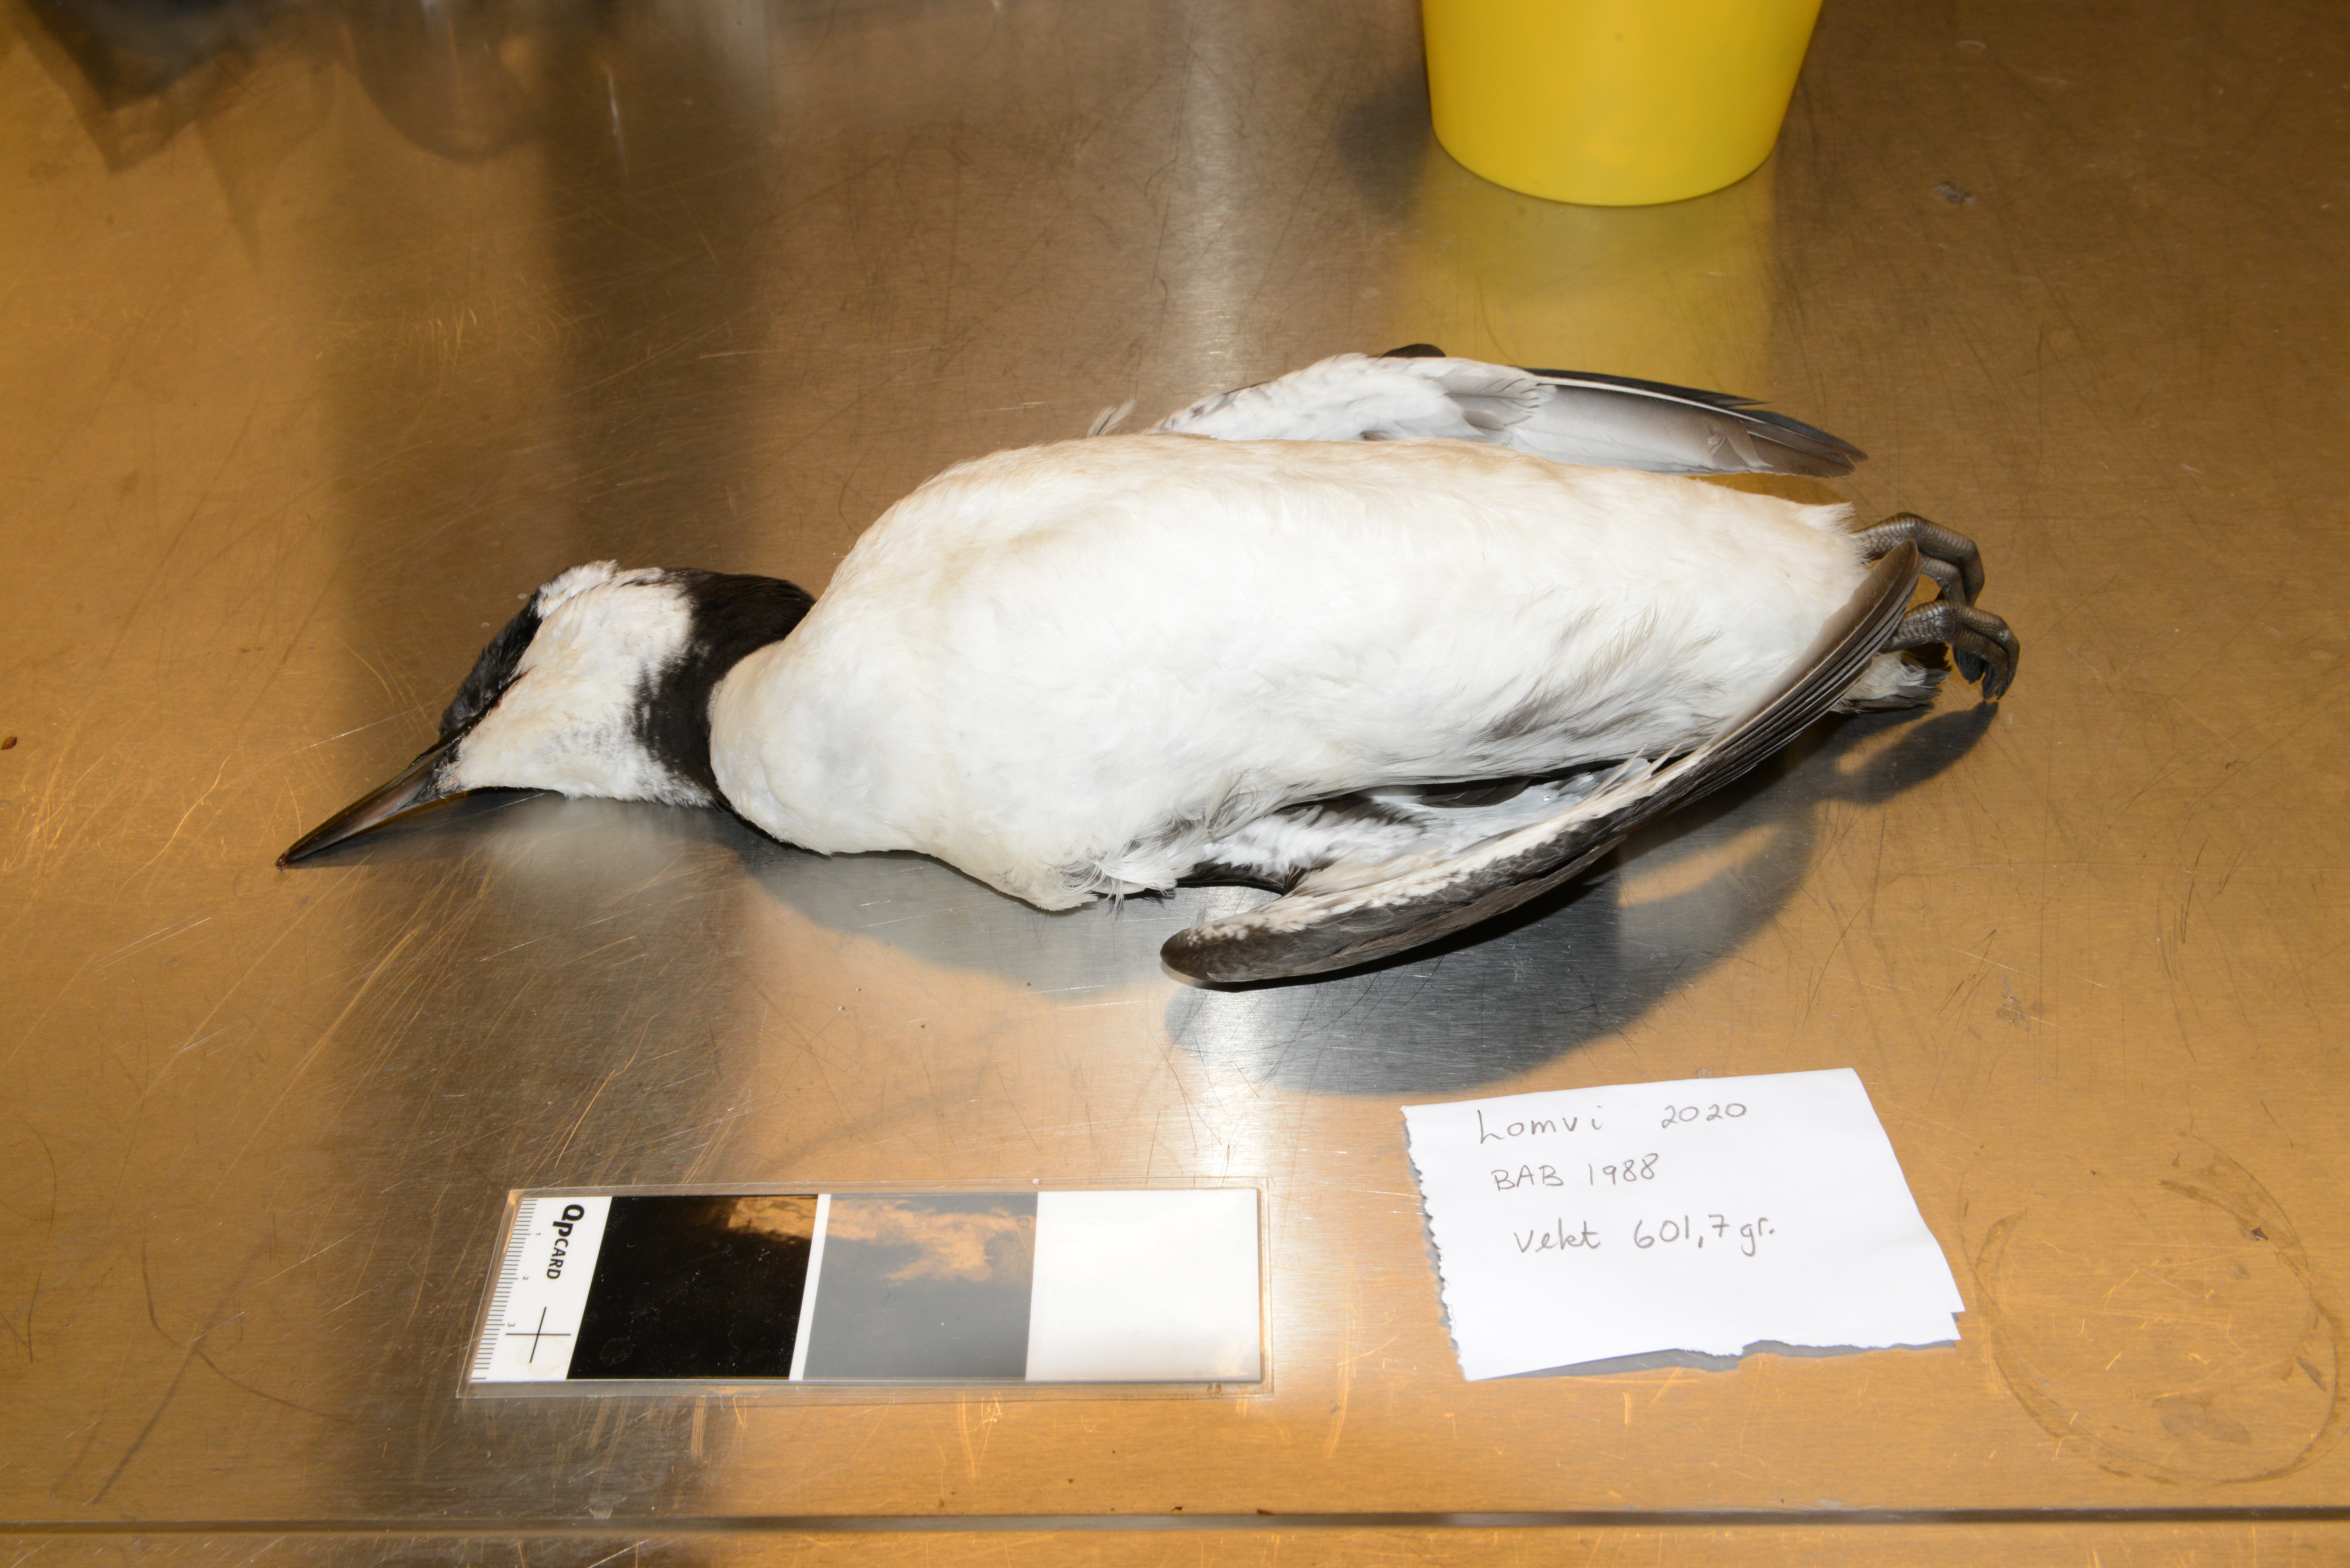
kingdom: Animalia
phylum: Chordata
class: Aves
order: Charadriiformes
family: Alcidae
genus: Uria
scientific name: Uria aalge
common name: Common murre
